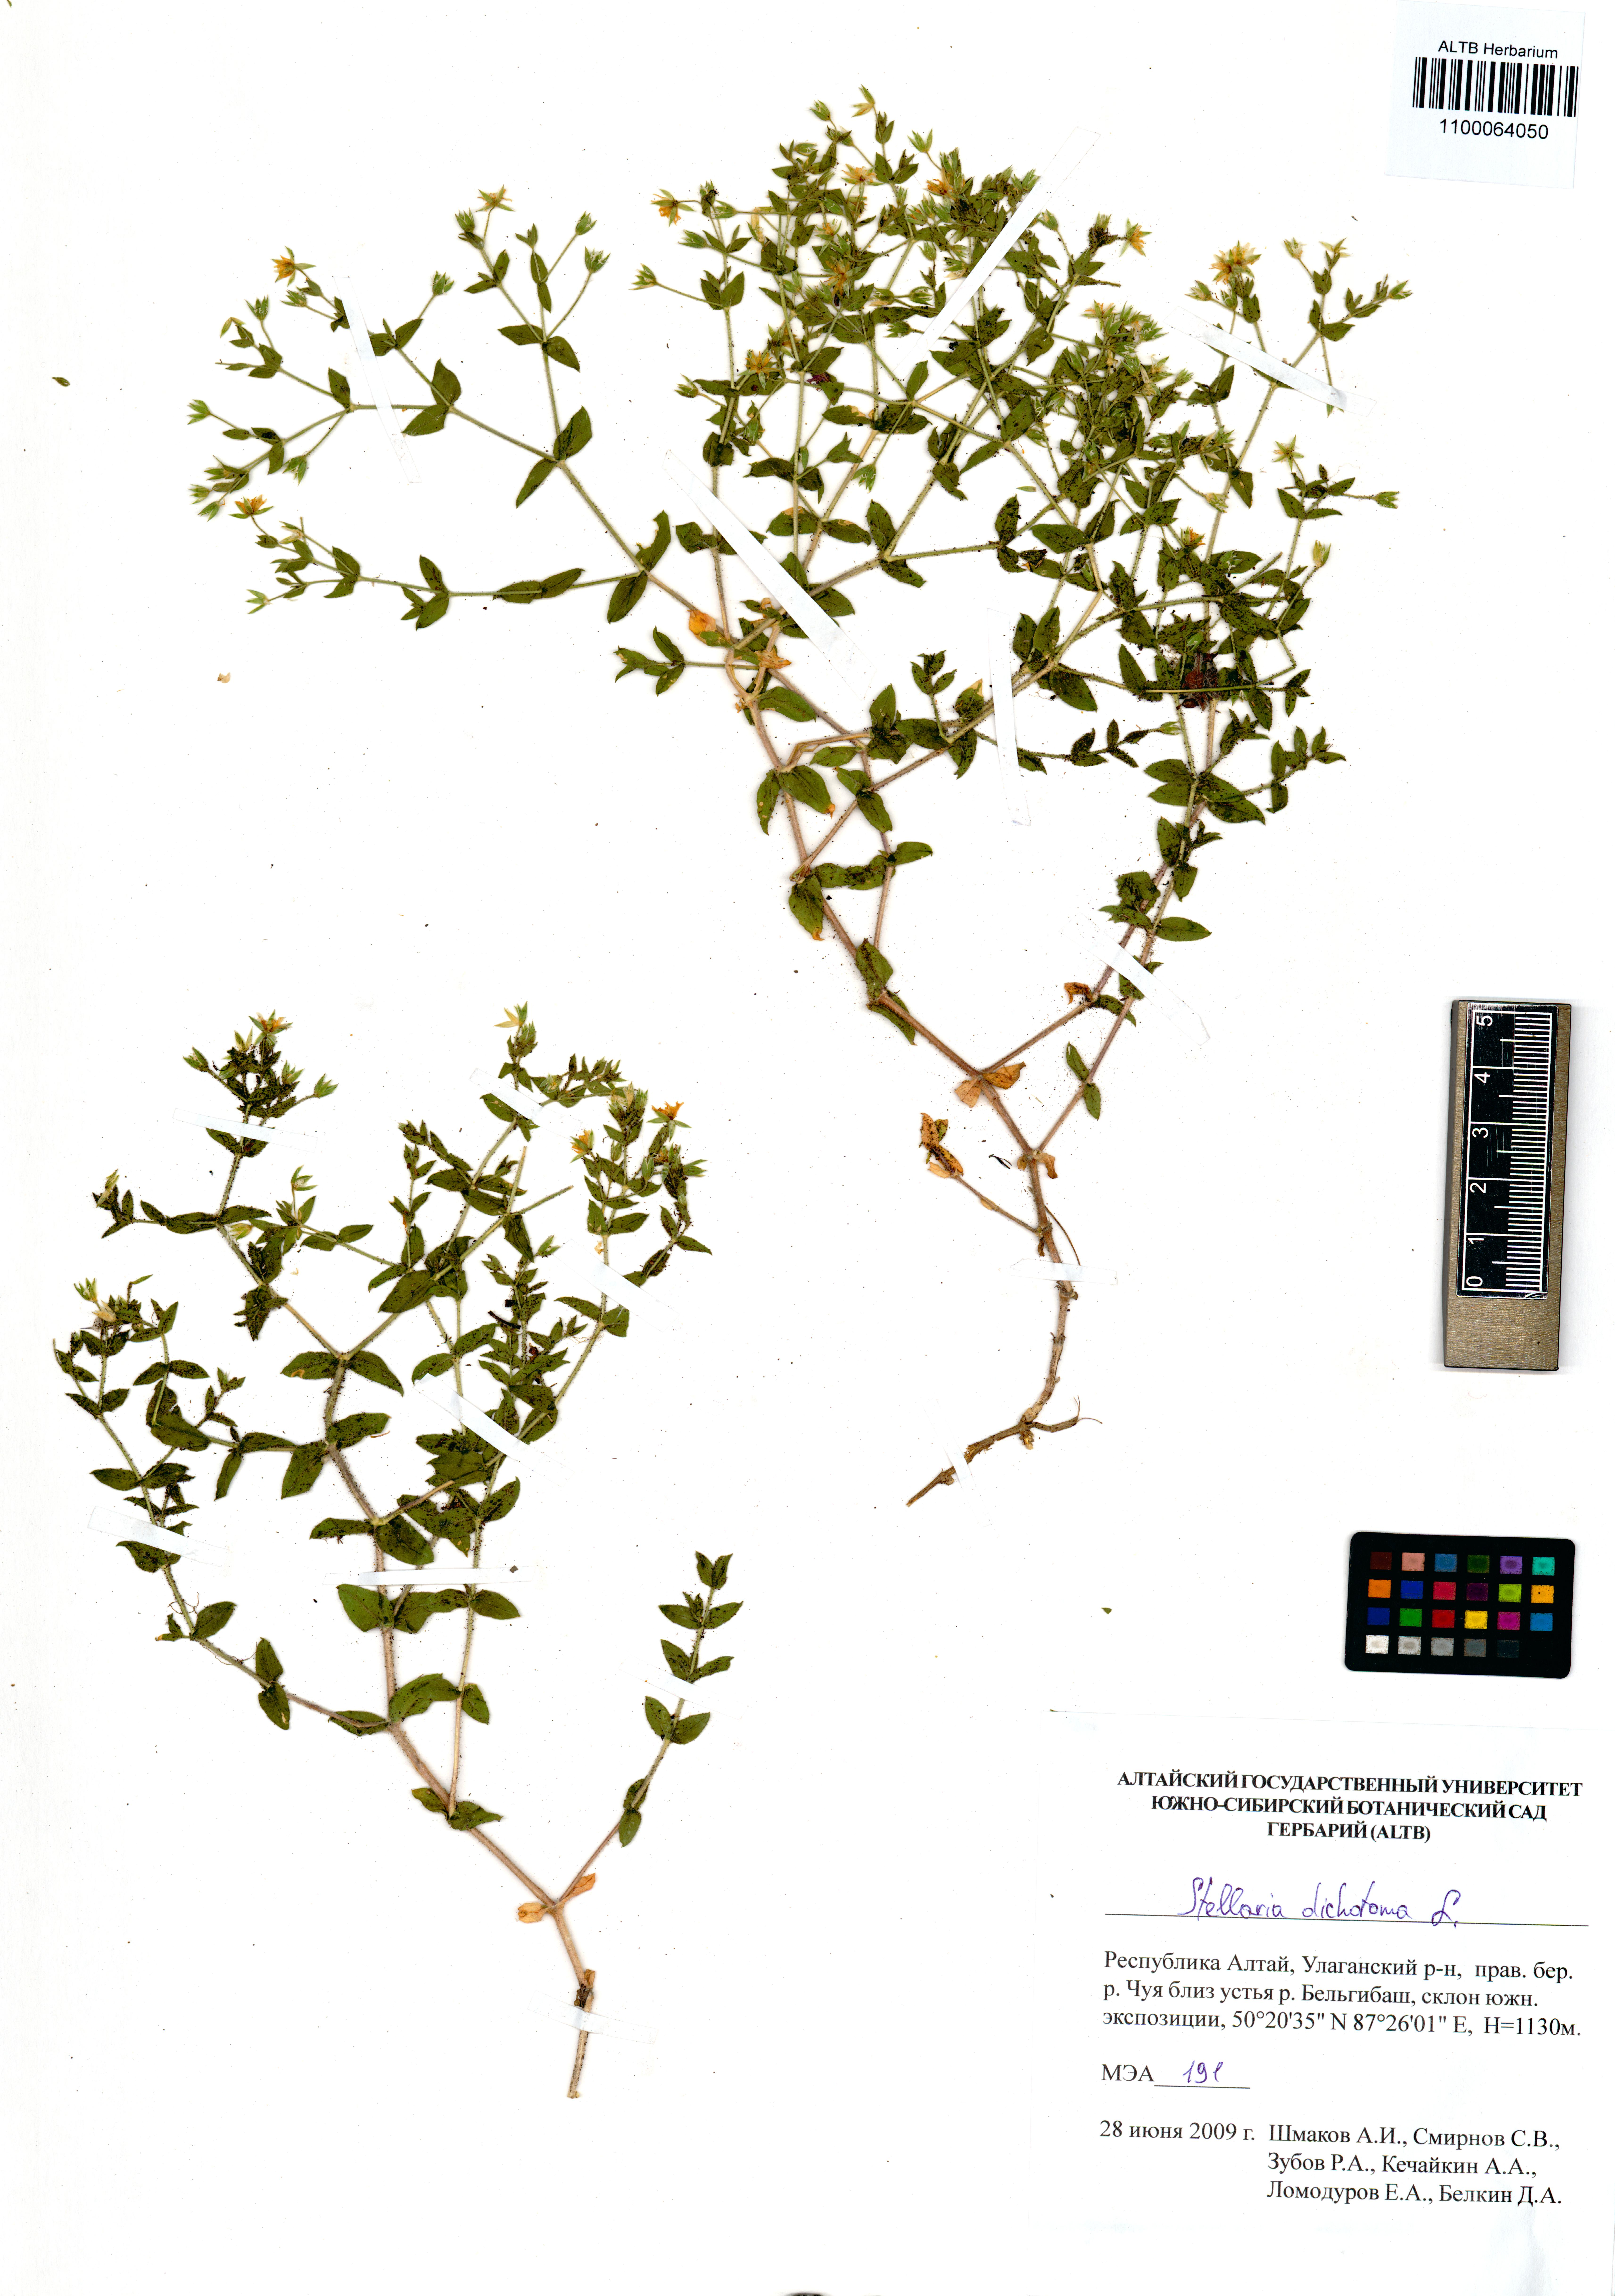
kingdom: Plantae
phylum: Tracheophyta
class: Magnoliopsida
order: Caryophyllales
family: Caryophyllaceae
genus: Mesostemma
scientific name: Mesostemma dichotomum
